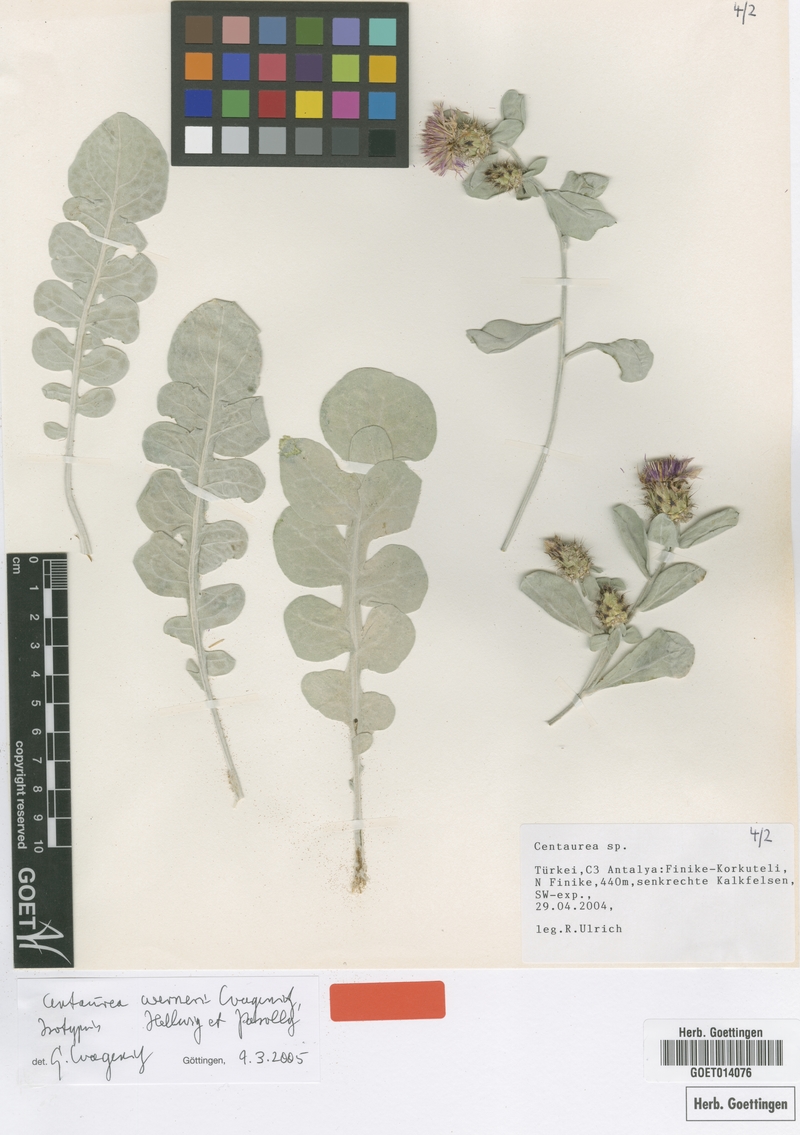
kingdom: Plantae
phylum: Tracheophyta
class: Magnoliopsida
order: Asterales
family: Asteraceae
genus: Centaurea
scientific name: Centaurea werneri
